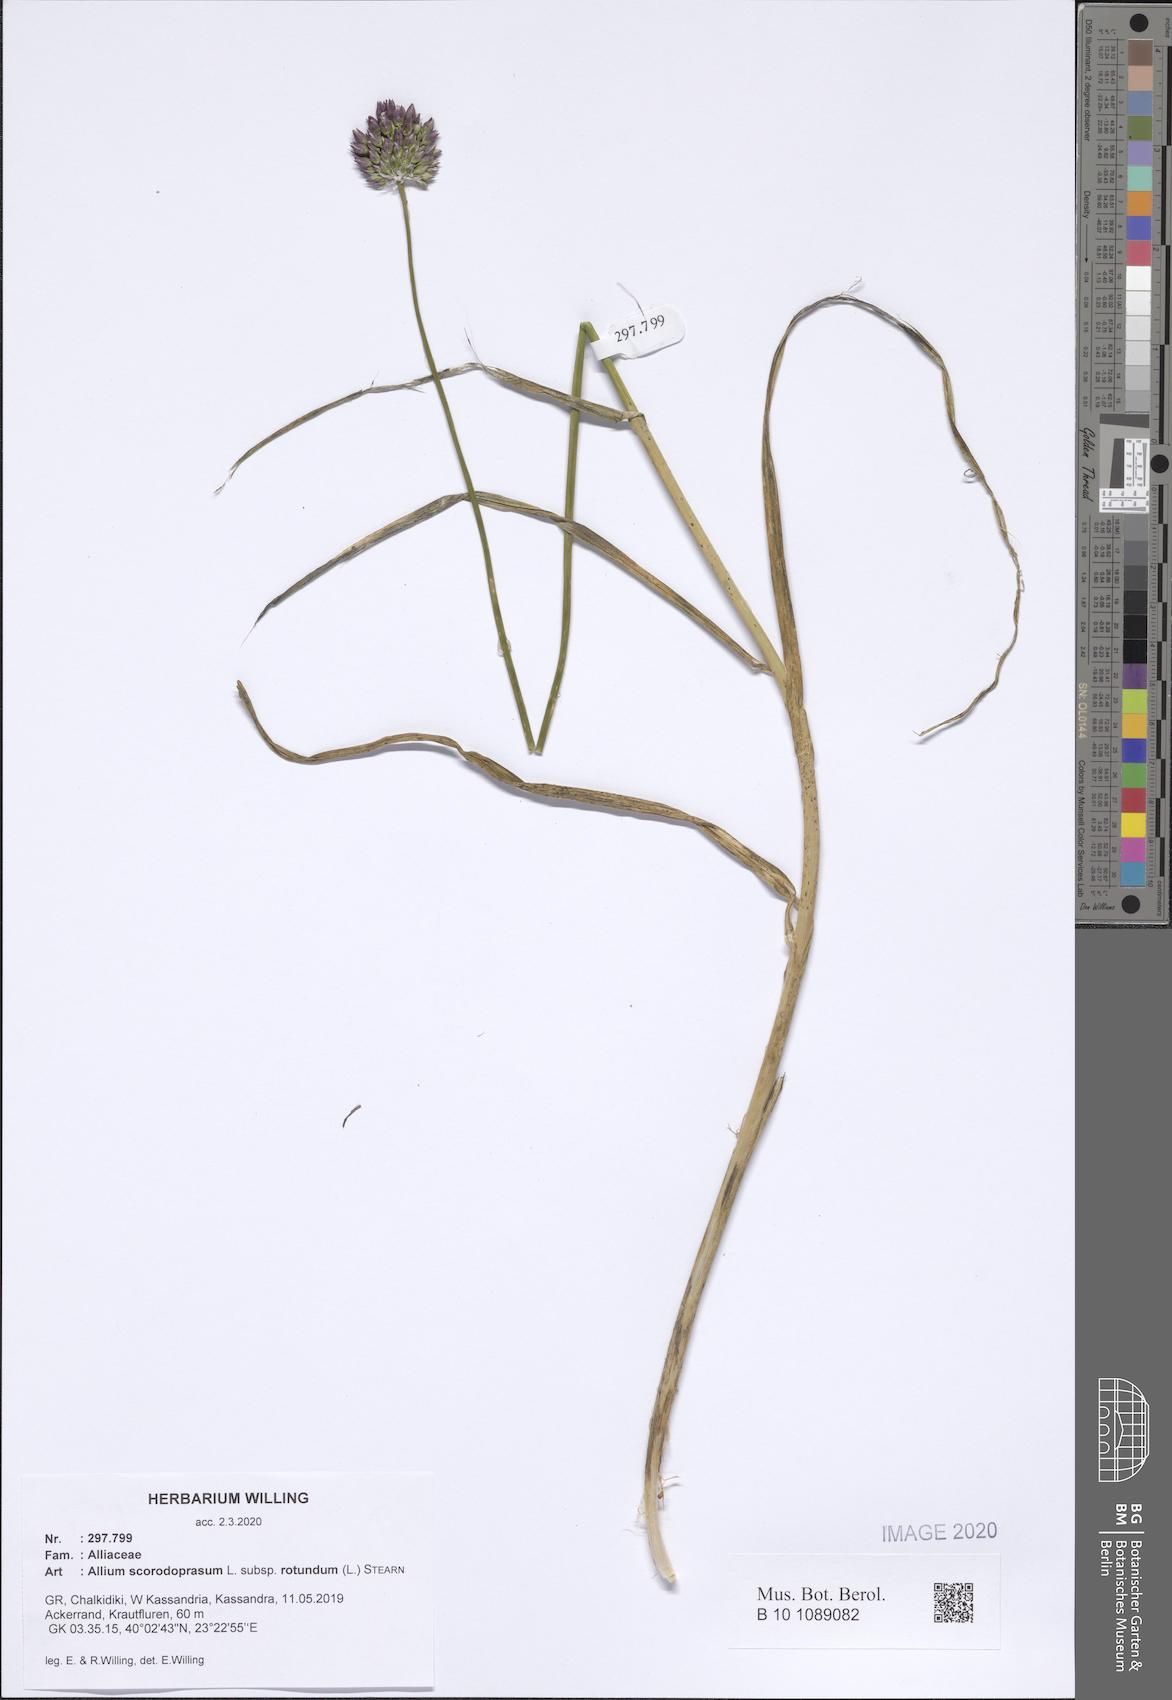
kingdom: Plantae
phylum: Tracheophyta
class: Liliopsida
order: Asparagales
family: Amaryllidaceae
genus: Allium
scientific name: Allium rotundum
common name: Sand leek
